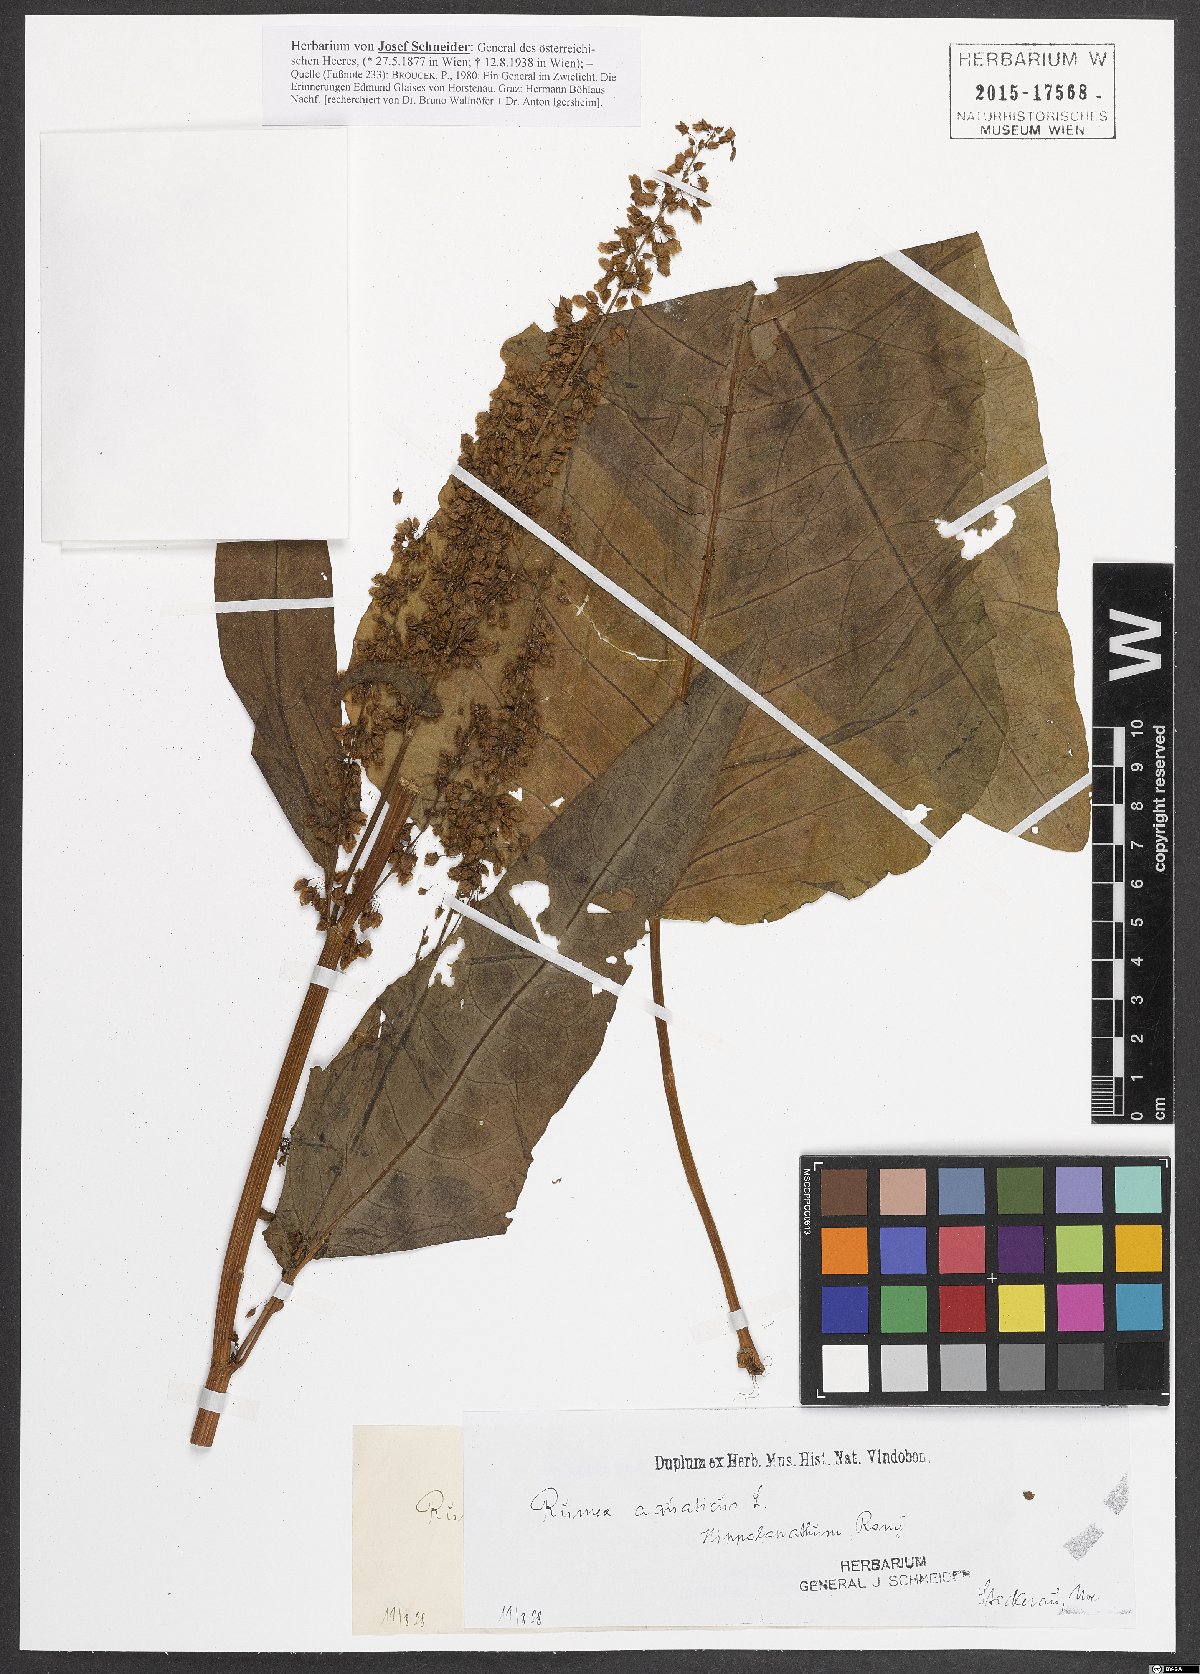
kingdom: Plantae
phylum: Tracheophyta
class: Magnoliopsida
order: Caryophyllales
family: Polygonaceae
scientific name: Polygonaceae
